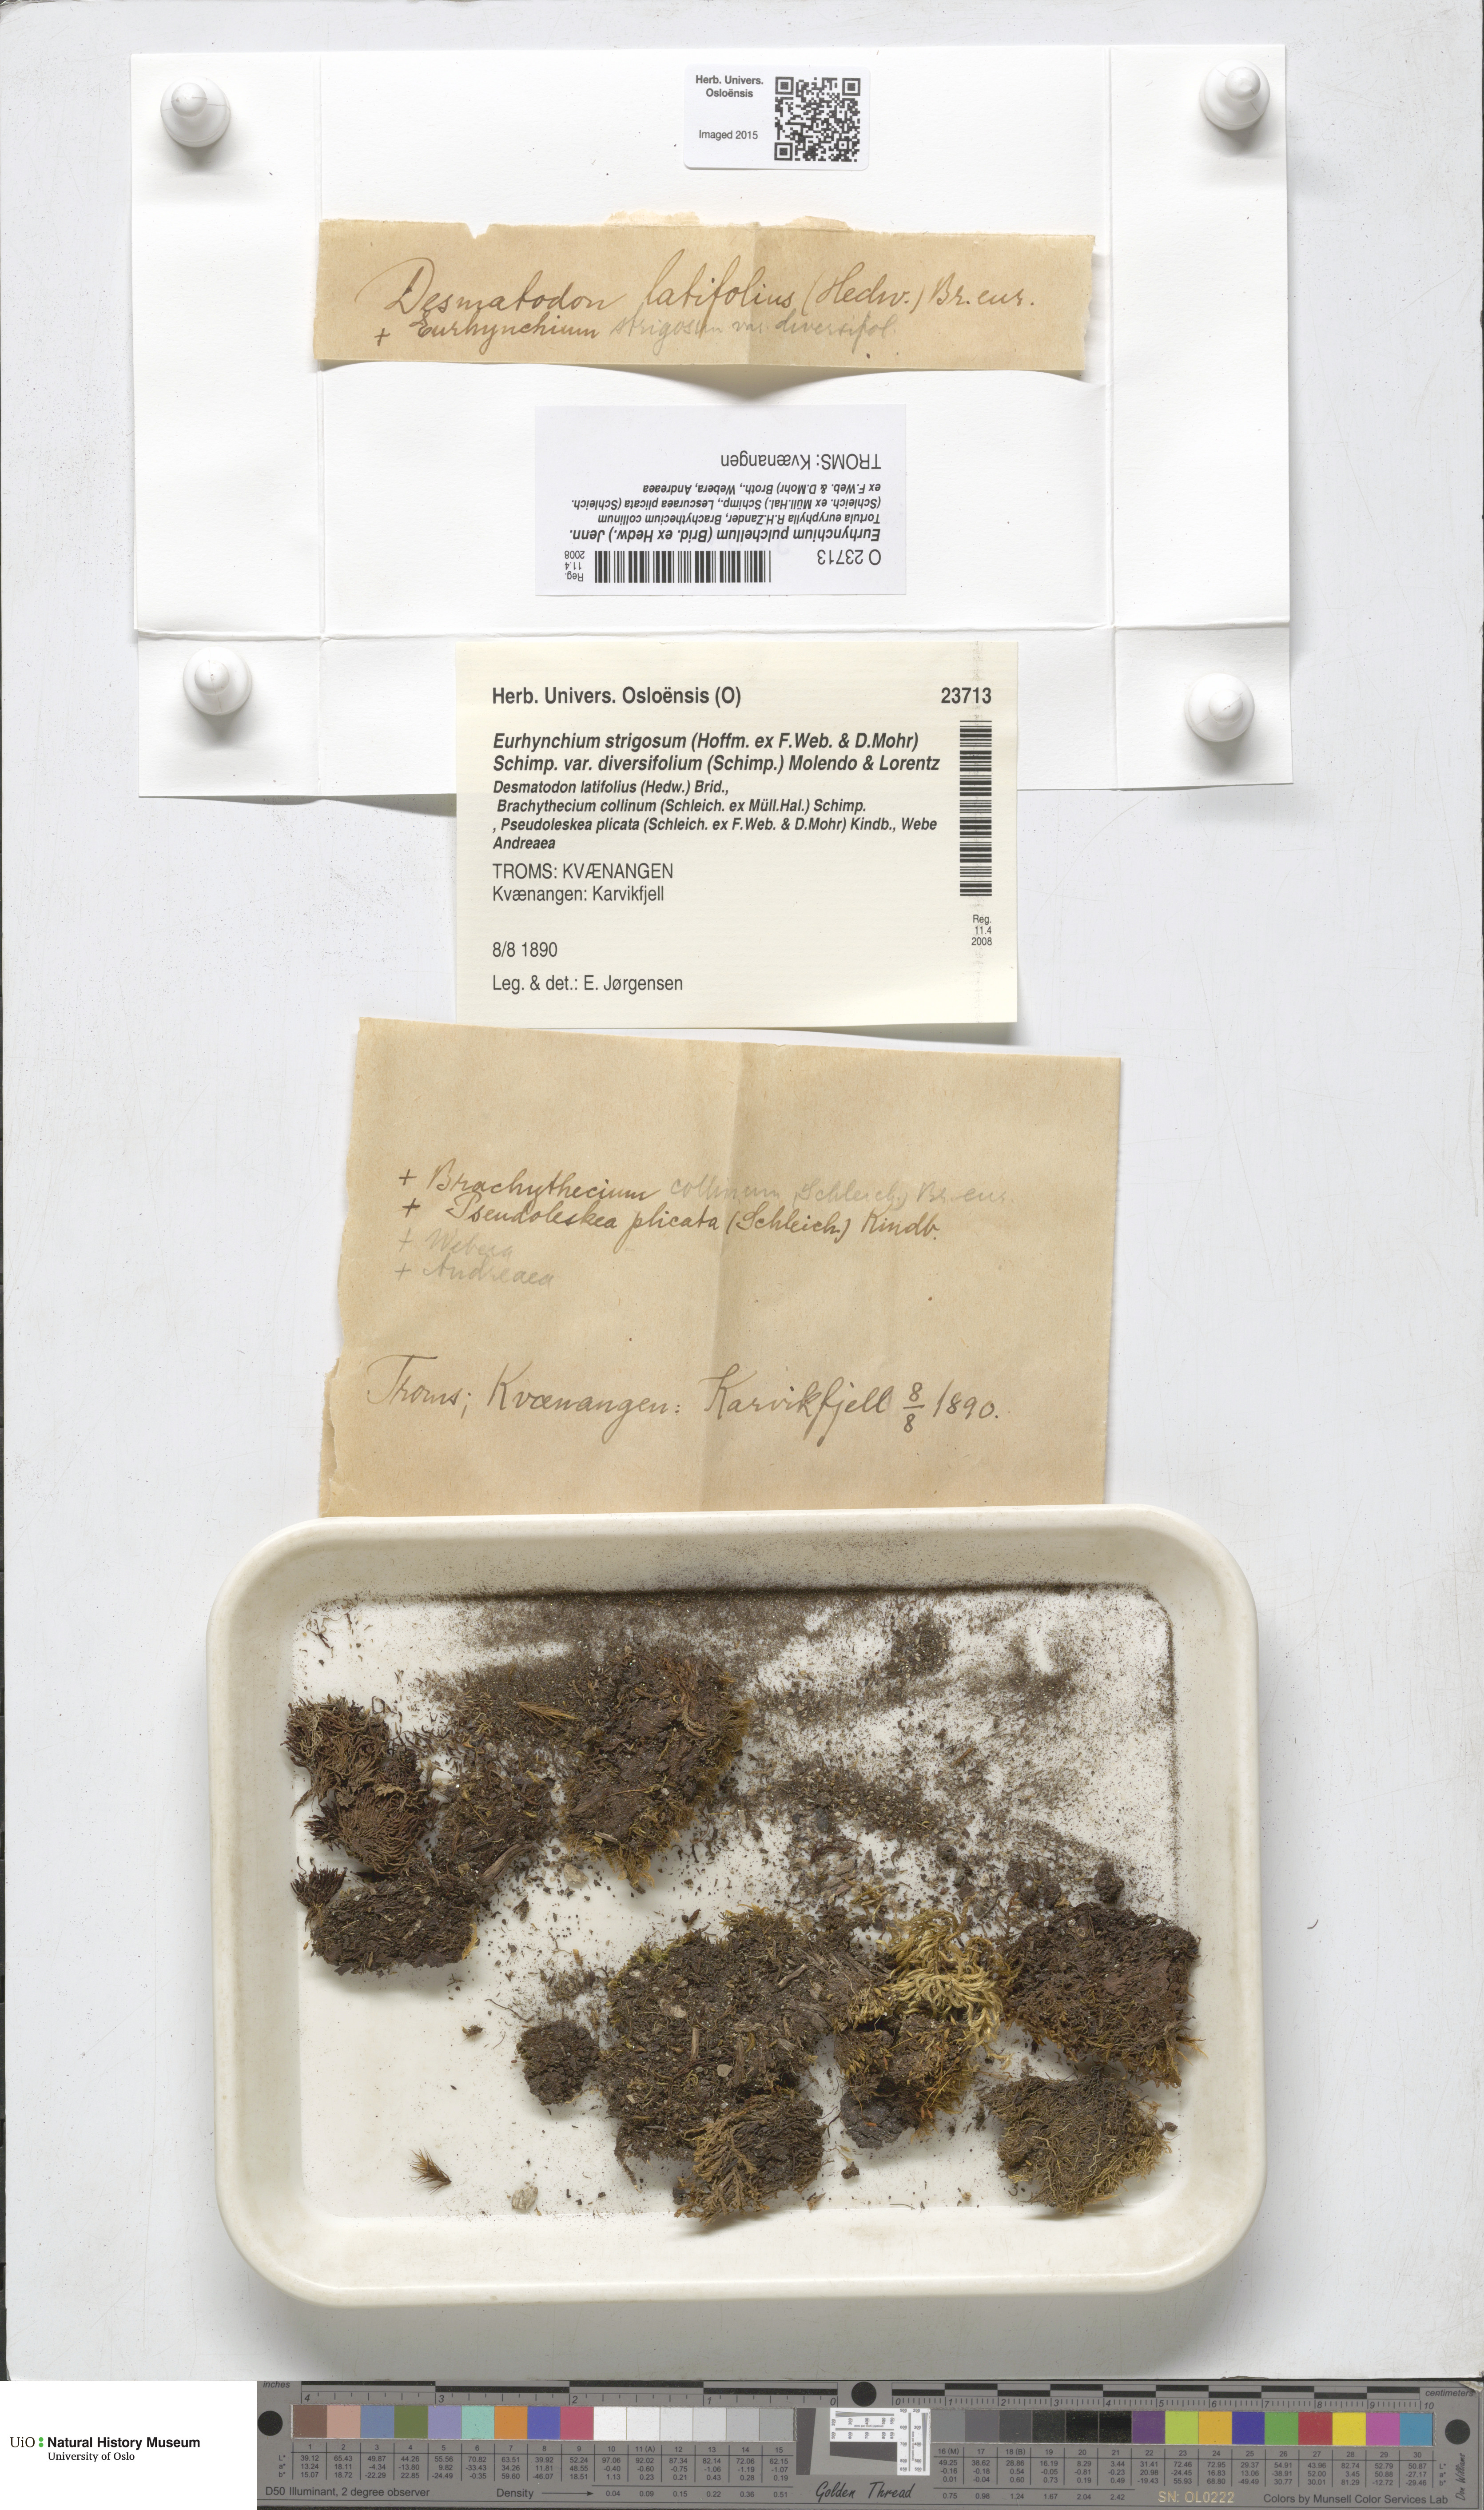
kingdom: Plantae
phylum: Bryophyta
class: Bryopsida
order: Hypnales
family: Brachytheciaceae
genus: Eurhynchiastrum
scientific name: Eurhynchiastrum diversifolium
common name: Elegant feather-moss
